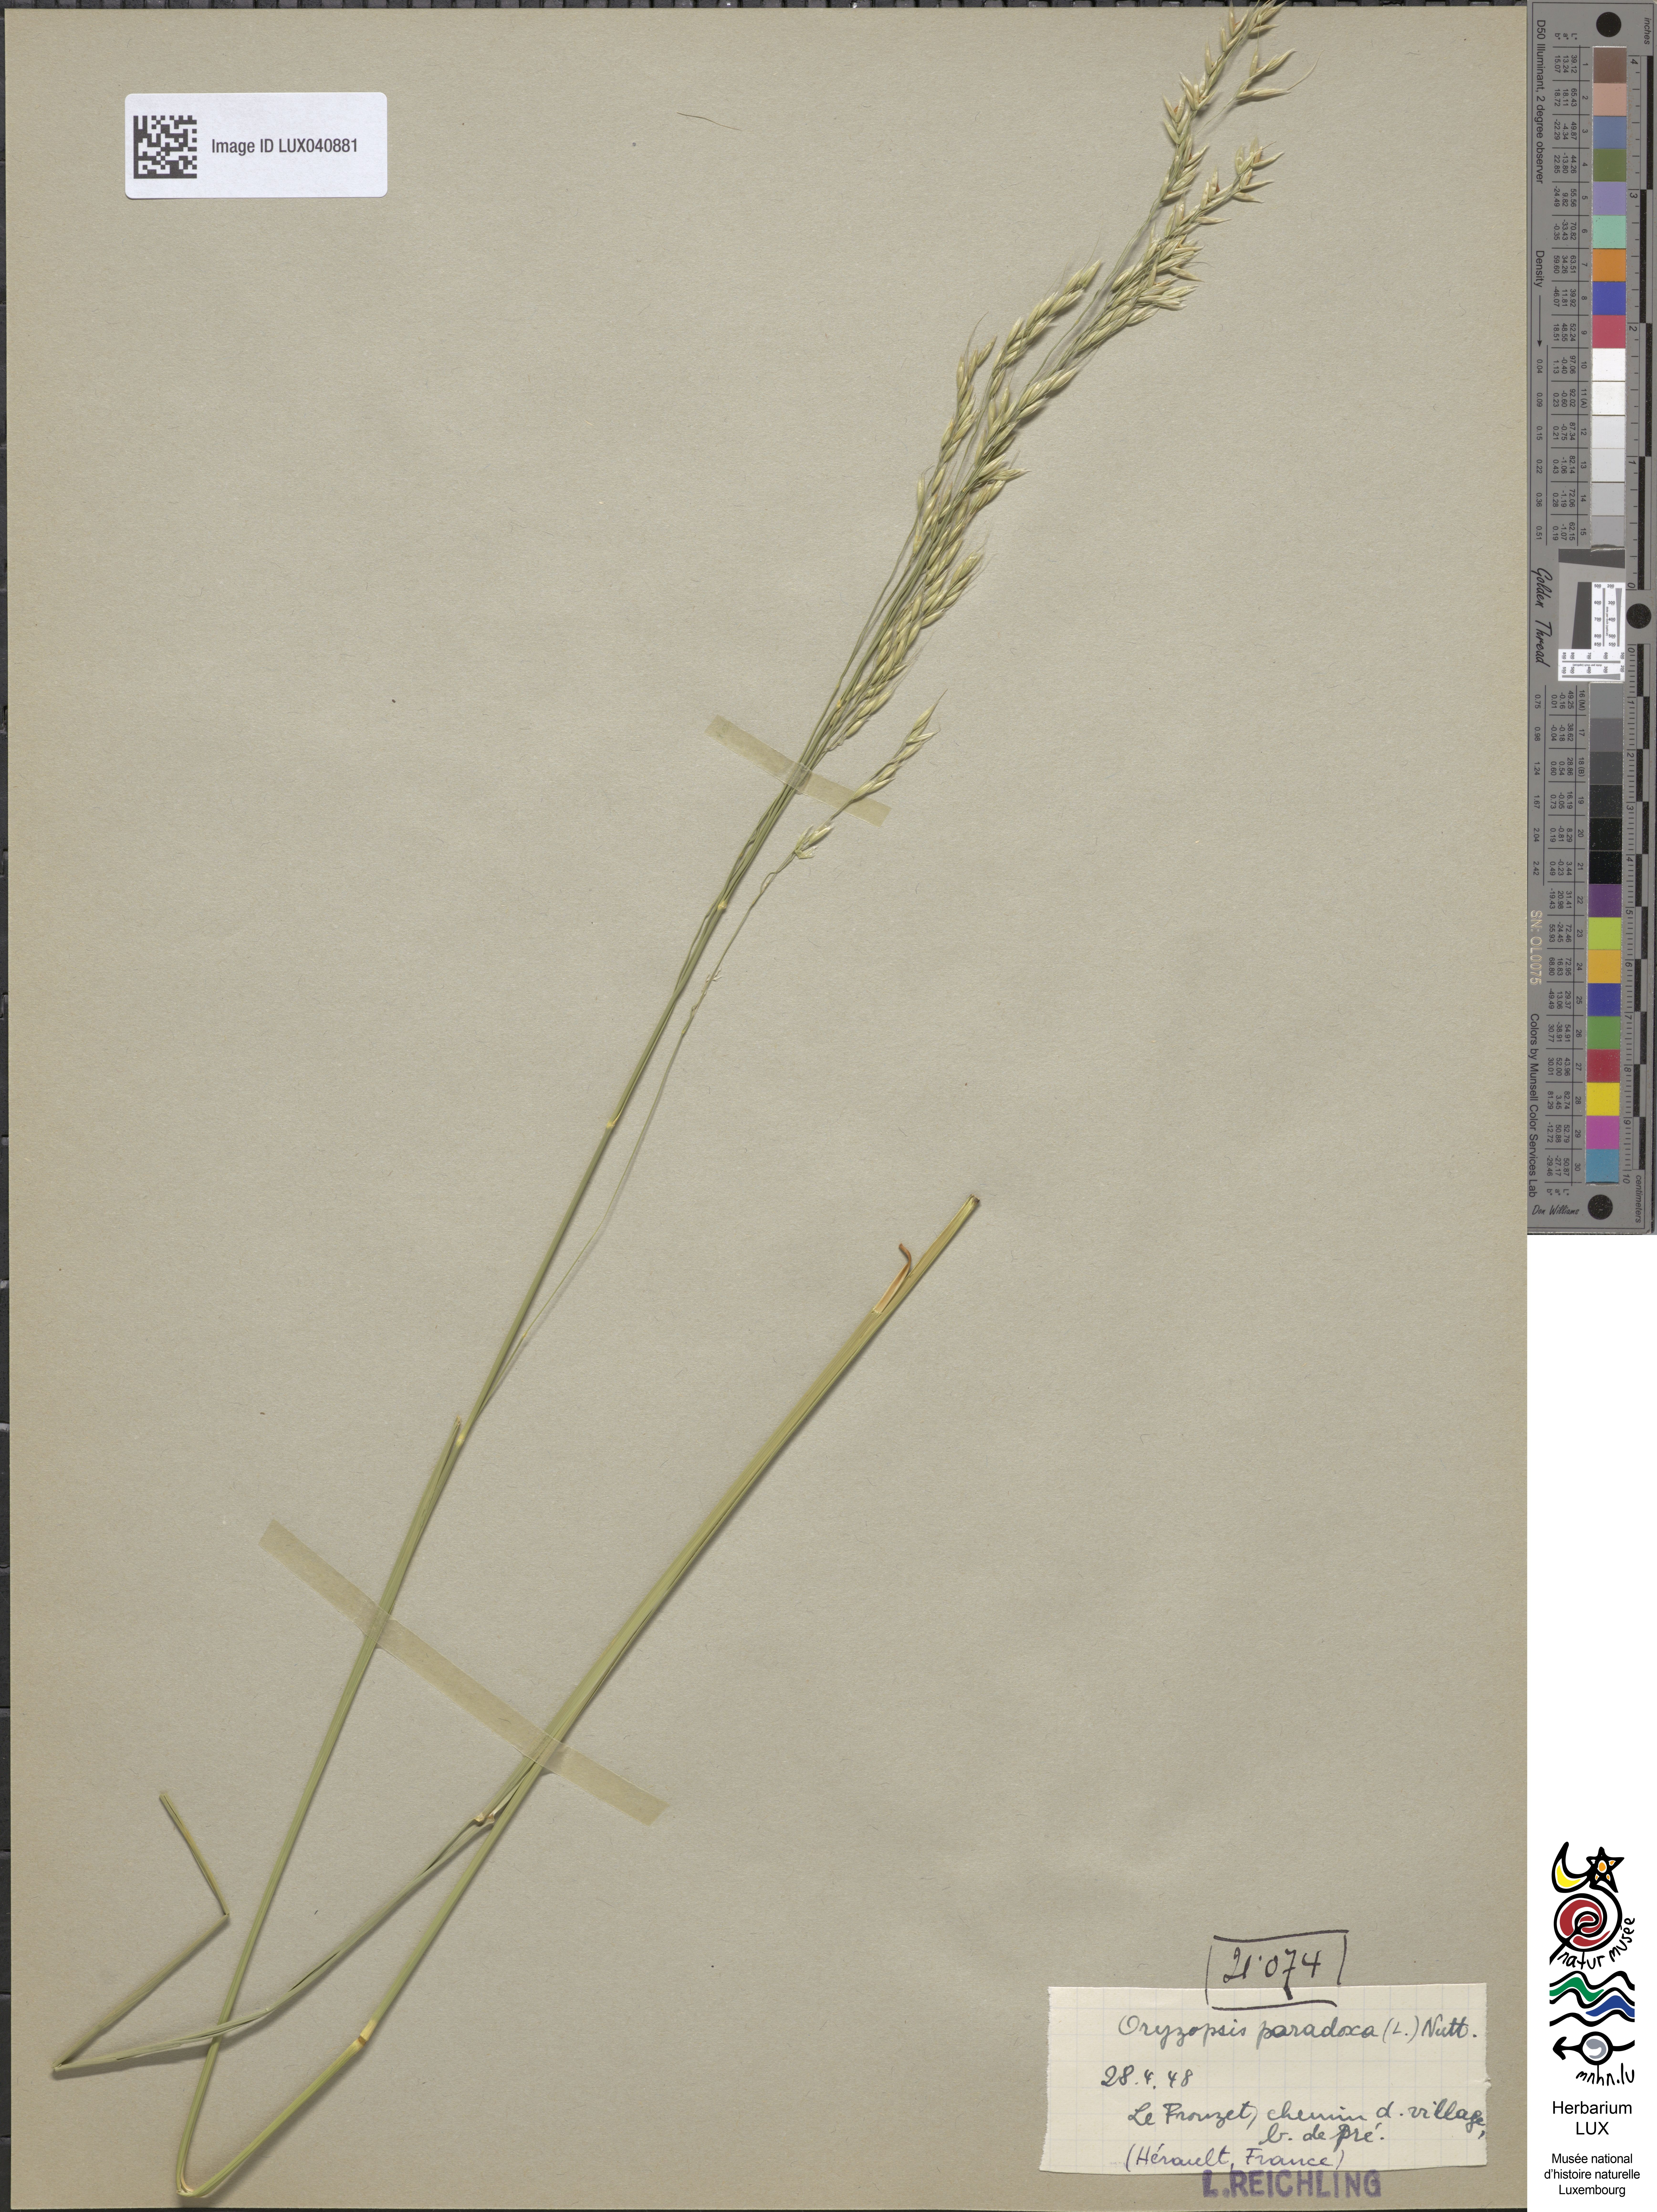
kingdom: Plantae
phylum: Tracheophyta
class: Liliopsida
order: Poales
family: Poaceae
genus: Achnatherum
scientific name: Achnatherum paradoxum
